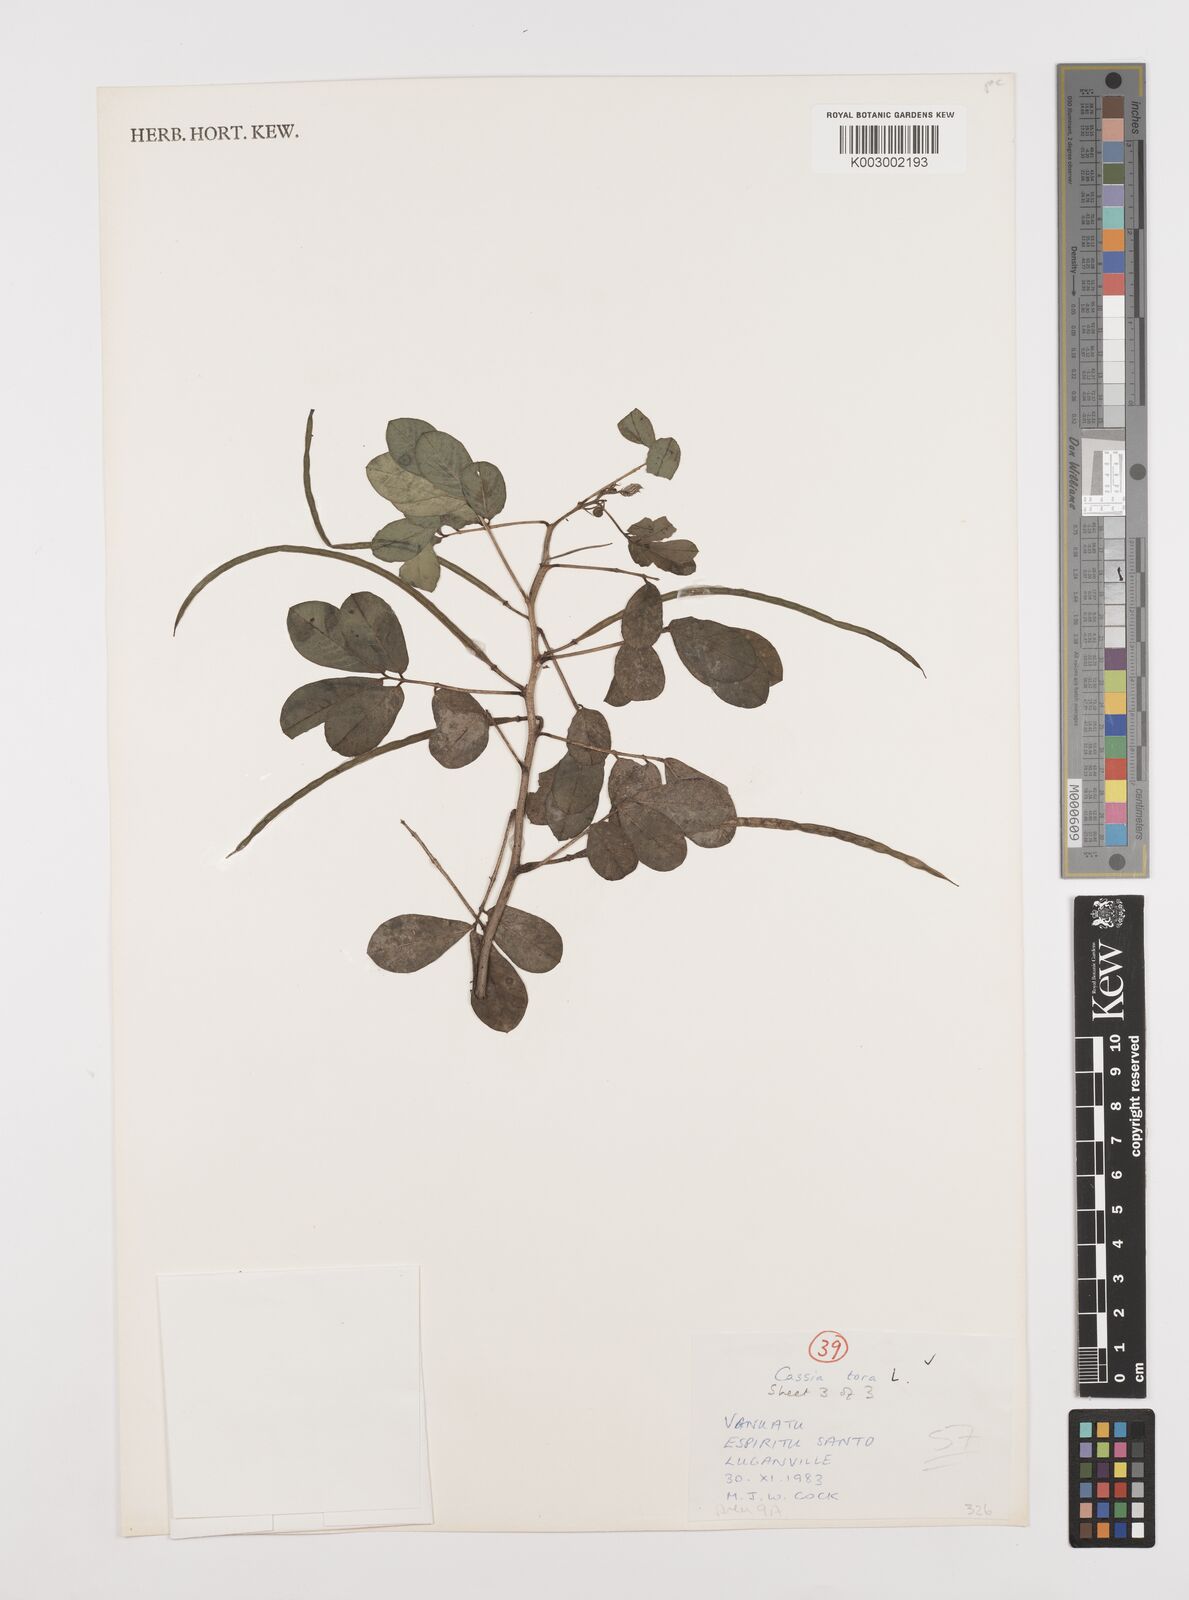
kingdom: Plantae
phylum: Tracheophyta
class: Magnoliopsida
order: Fabales
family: Fabaceae
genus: Senna
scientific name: Senna tora
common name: Sickle senna
